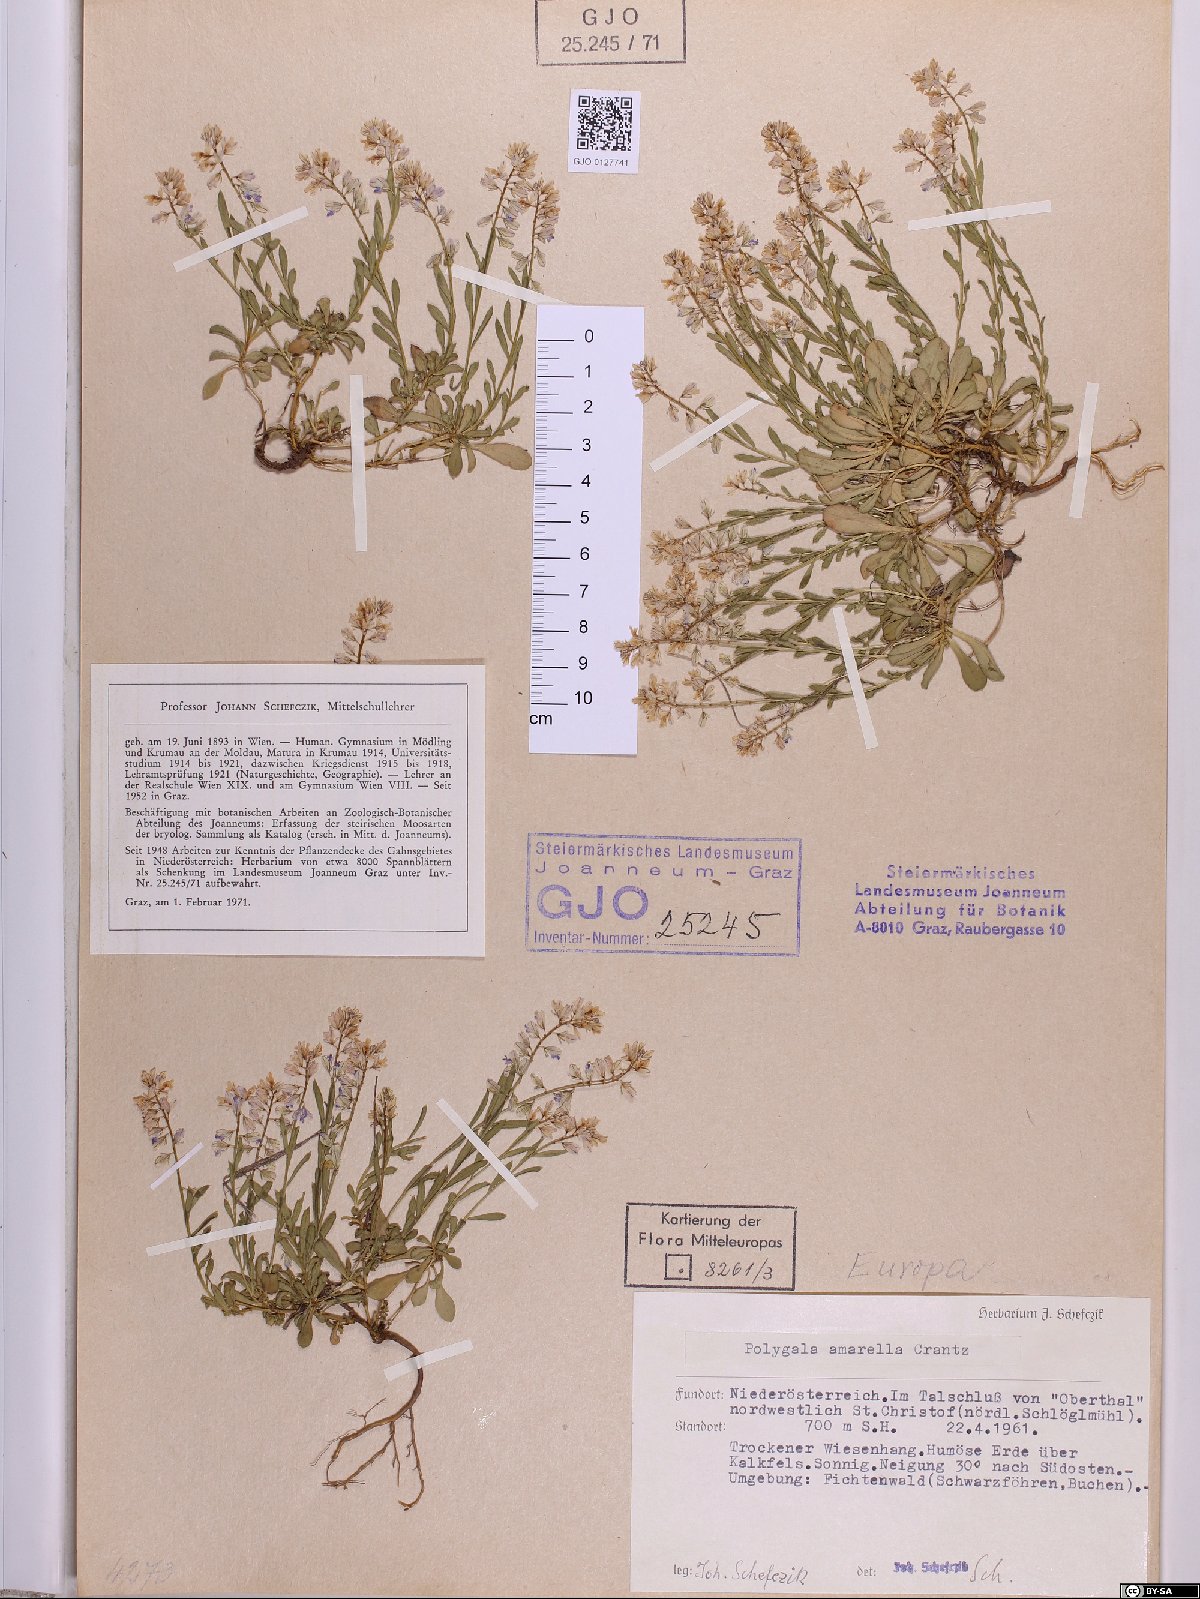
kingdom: Plantae
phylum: Tracheophyta
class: Magnoliopsida
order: Fabales
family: Polygalaceae
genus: Polygala
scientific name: Polygala amarella
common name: Dwarf milkwort
